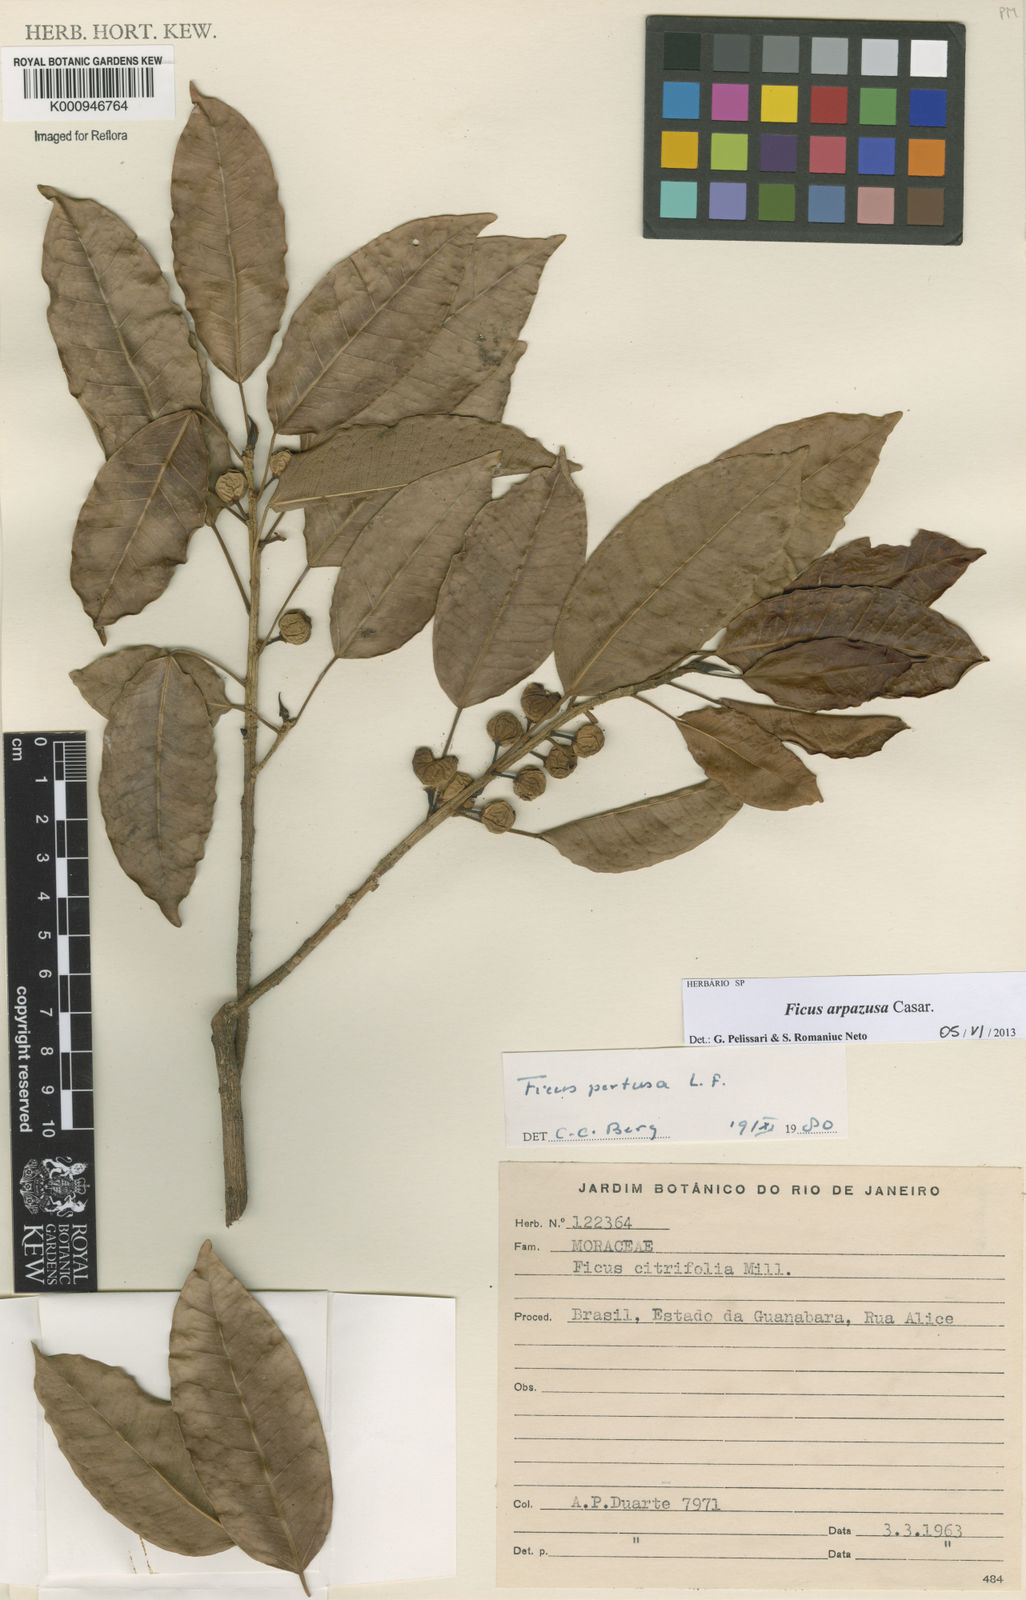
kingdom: Plantae
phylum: Tracheophyta
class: Magnoliopsida
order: Rosales
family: Moraceae
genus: Ficus
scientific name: Ficus arpazusa
